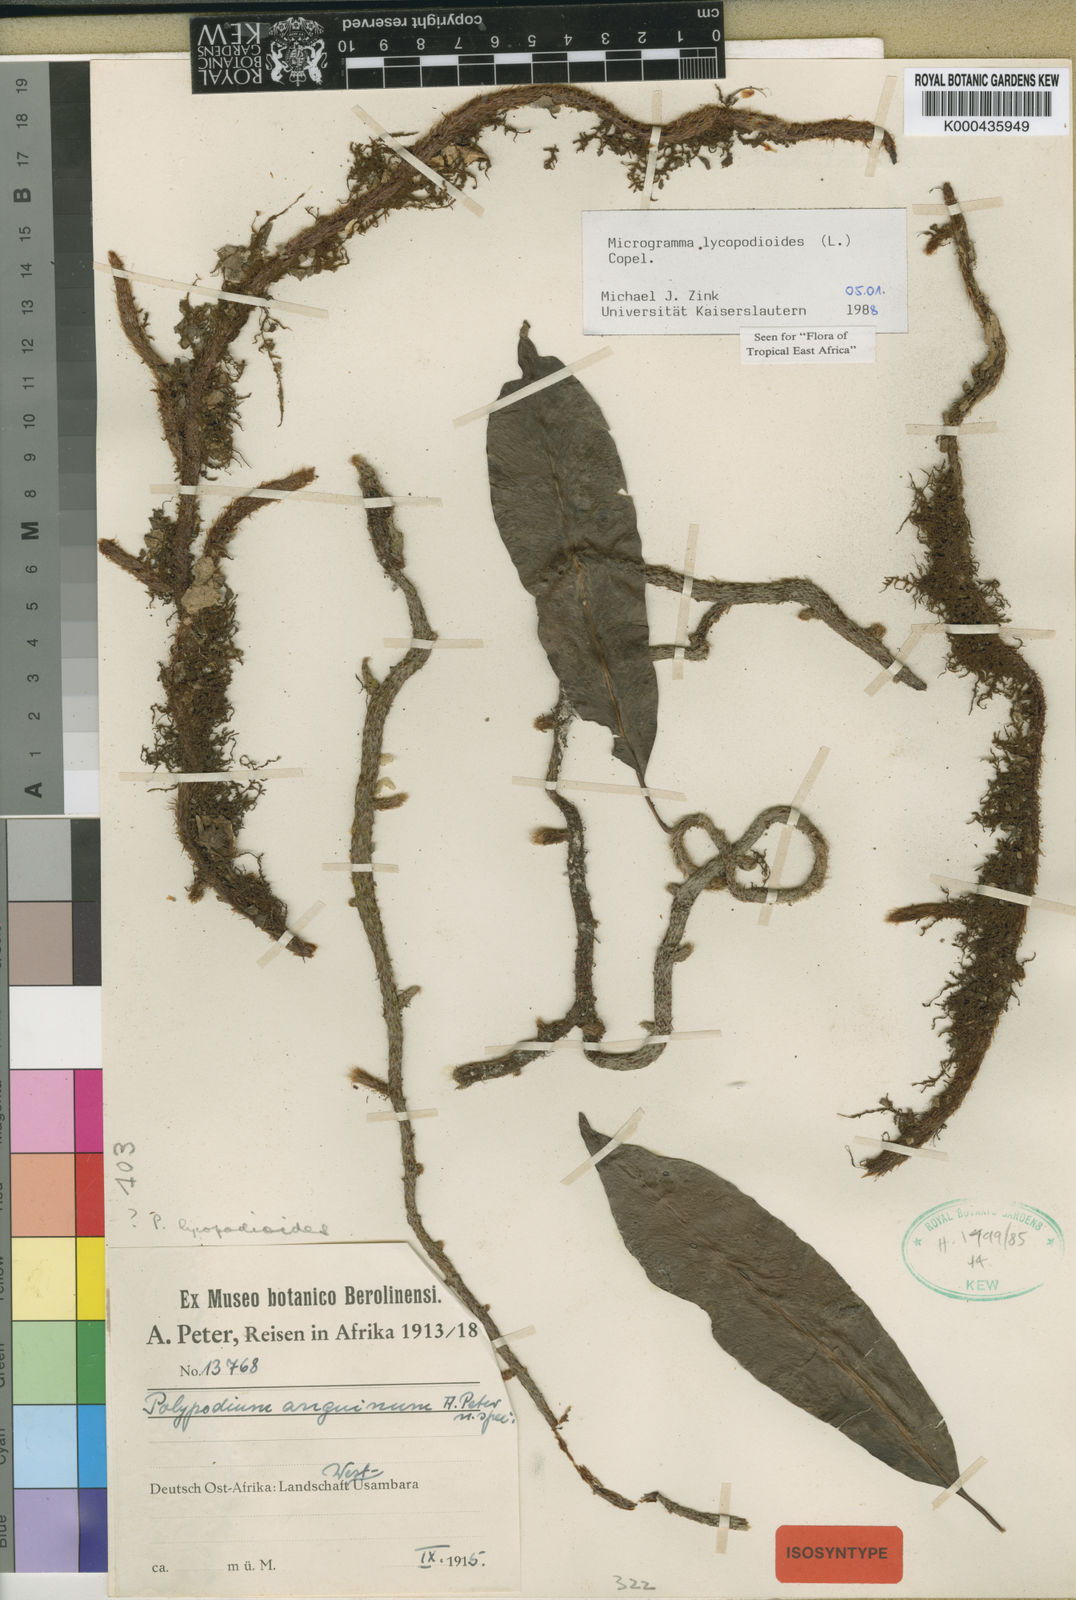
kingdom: Plantae
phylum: Tracheophyta
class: Polypodiopsida
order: Polypodiales
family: Polypodiaceae
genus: Microgramma
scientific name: Microgramma
